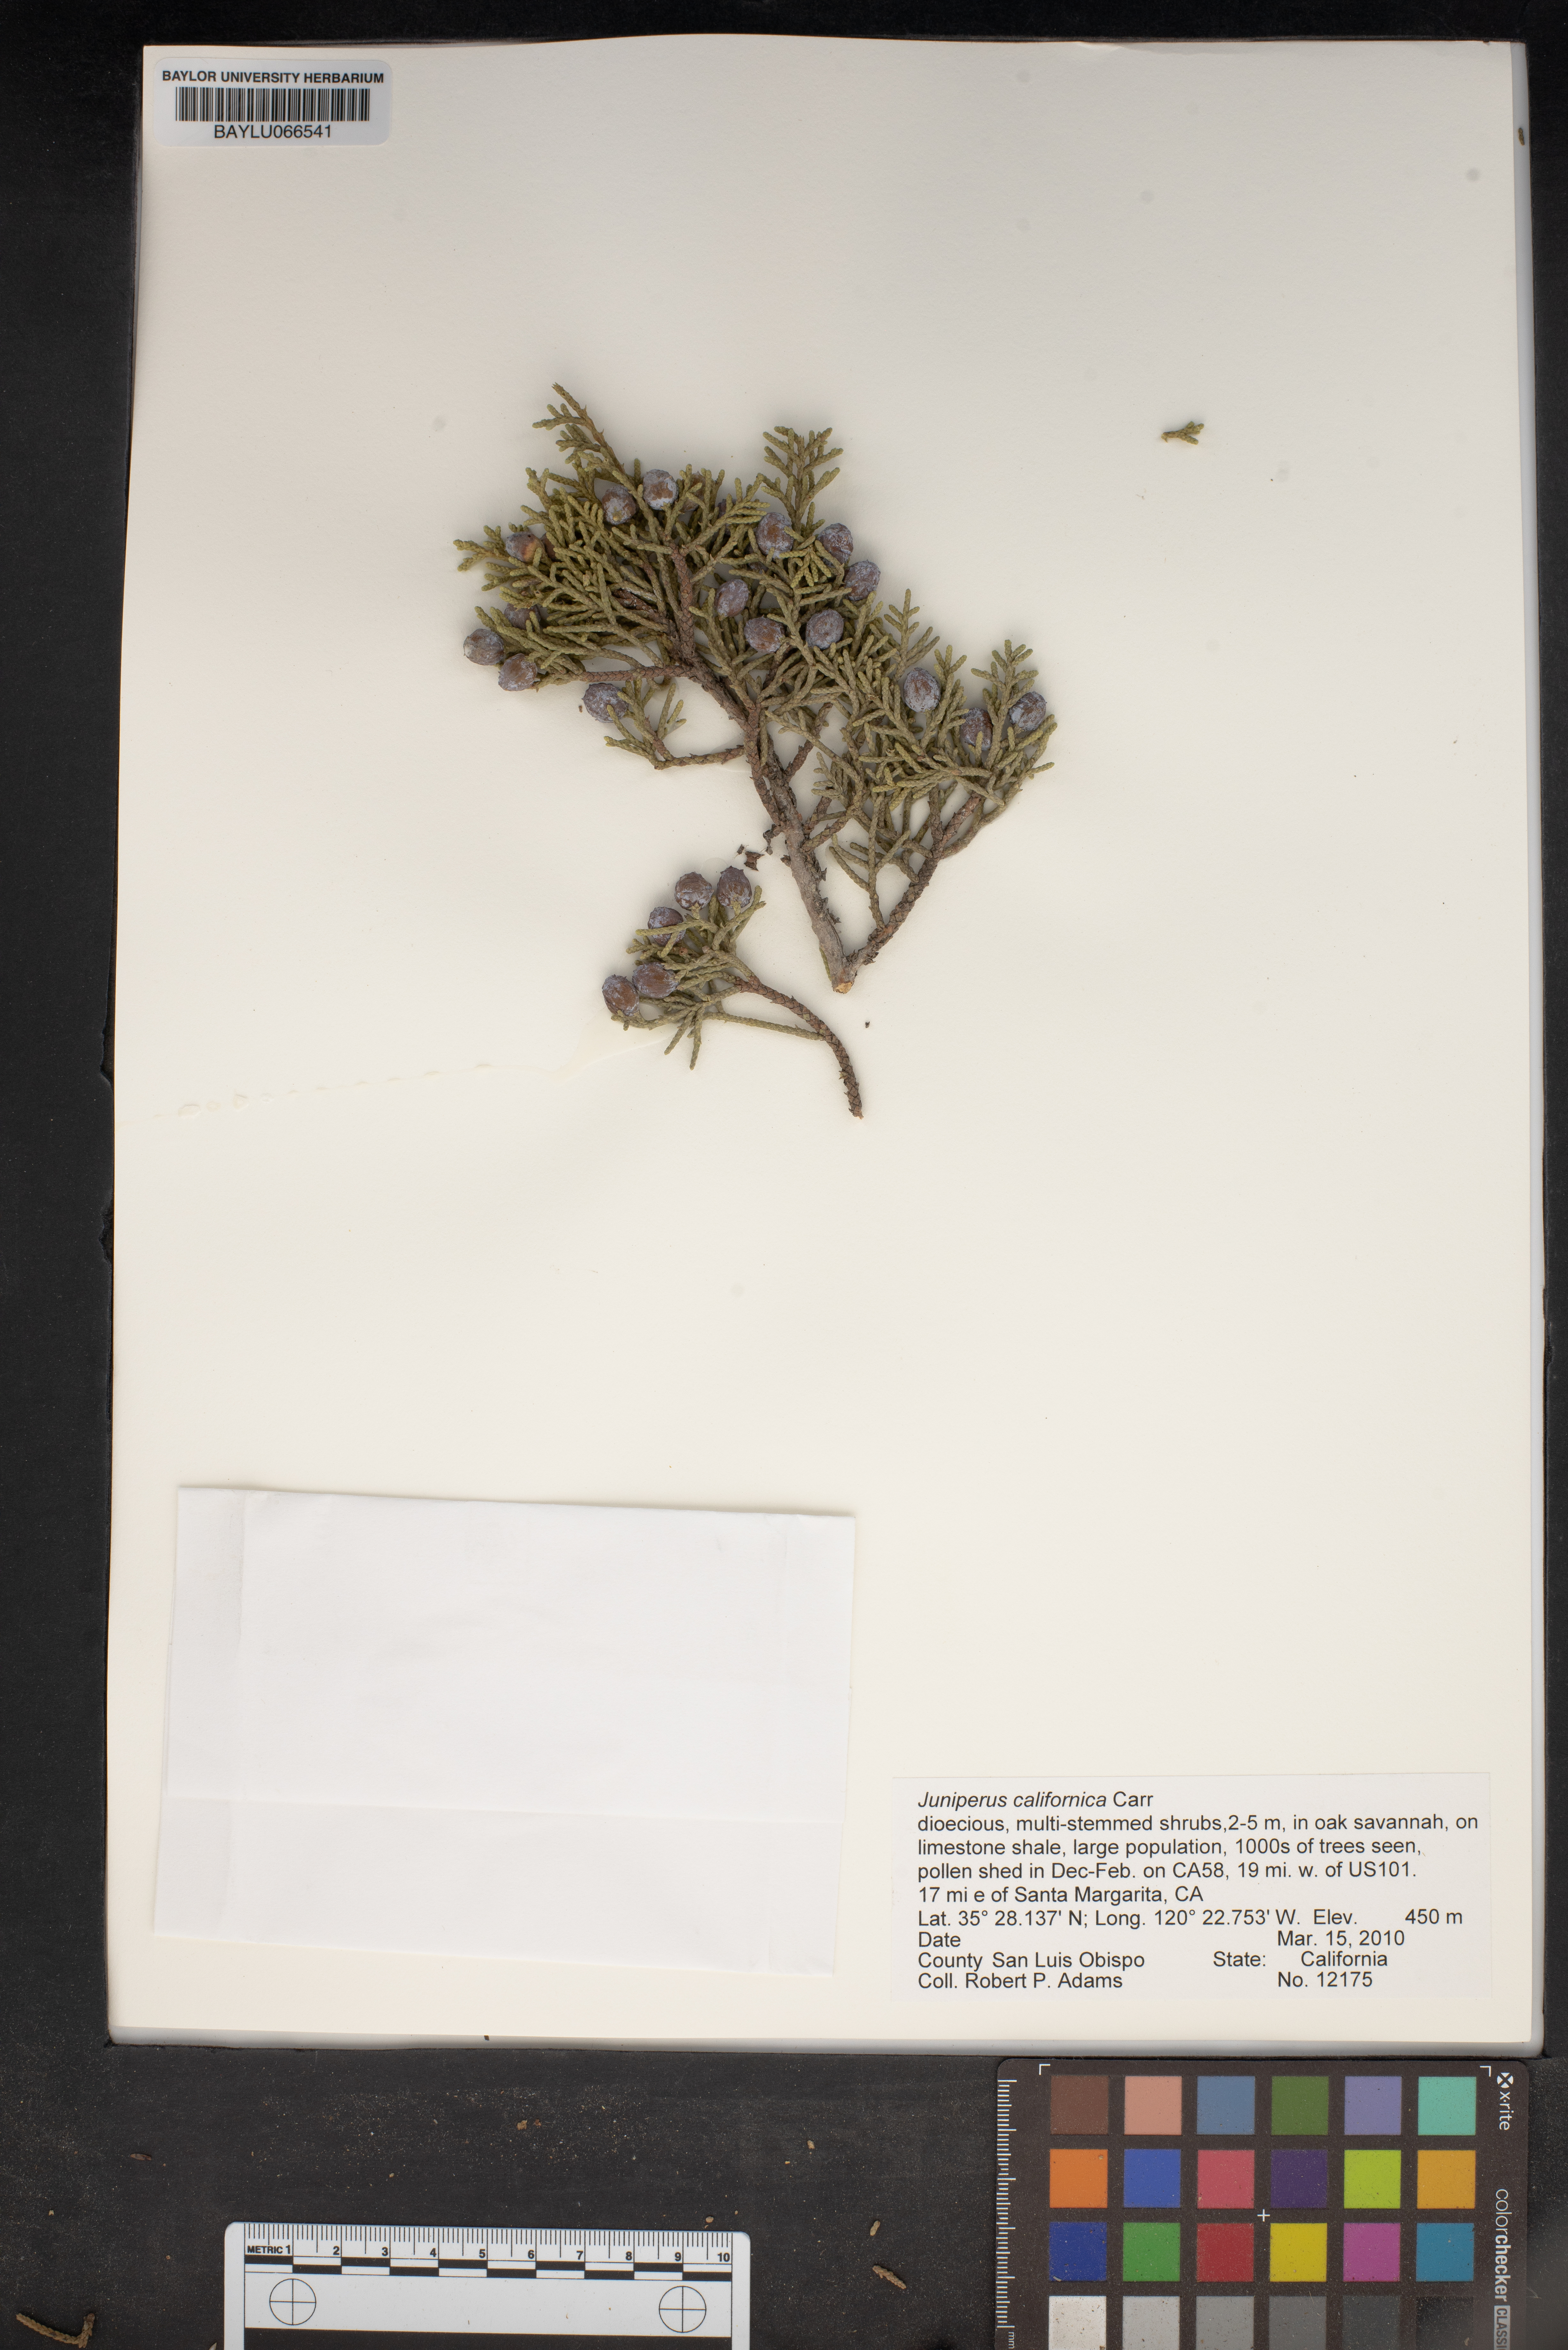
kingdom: Plantae
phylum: Tracheophyta
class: Pinopsida
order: Pinales
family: Cupressaceae
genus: Juniperus
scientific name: Juniperus californica
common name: California juniper
